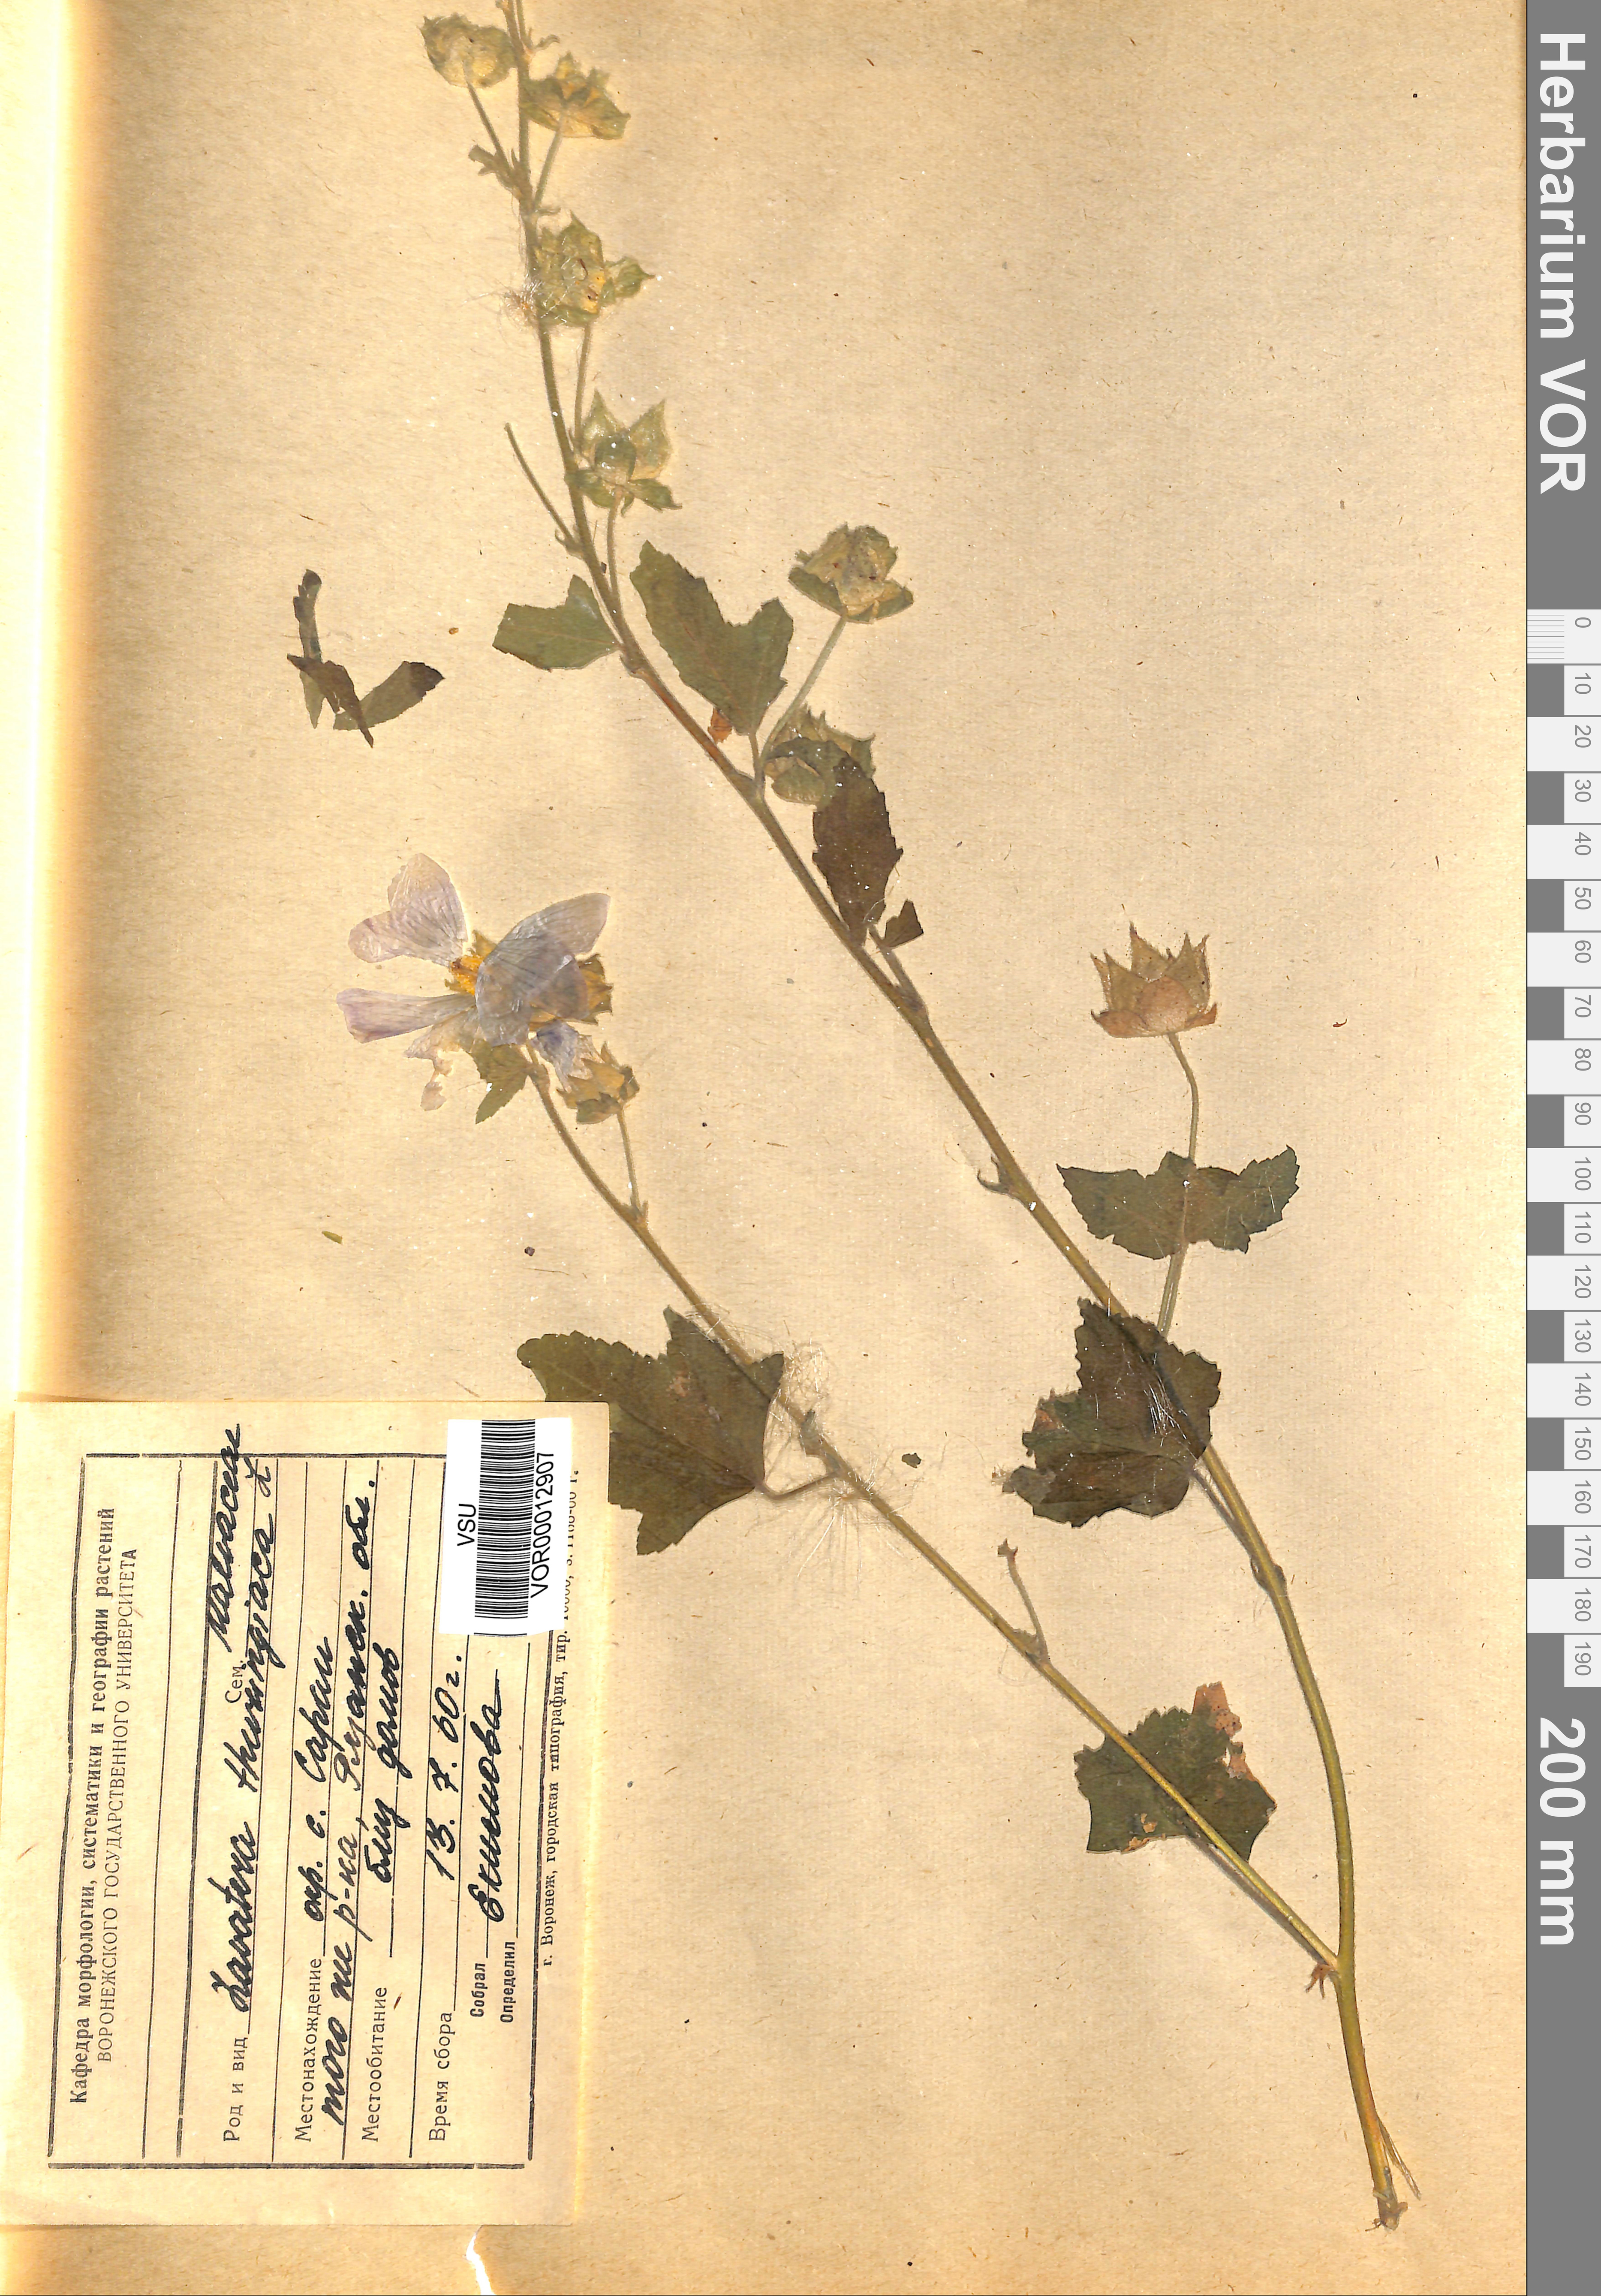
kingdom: Plantae
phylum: Tracheophyta
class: Magnoliopsida
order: Malvales
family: Malvaceae
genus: Malva
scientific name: Malva thuringiaca
